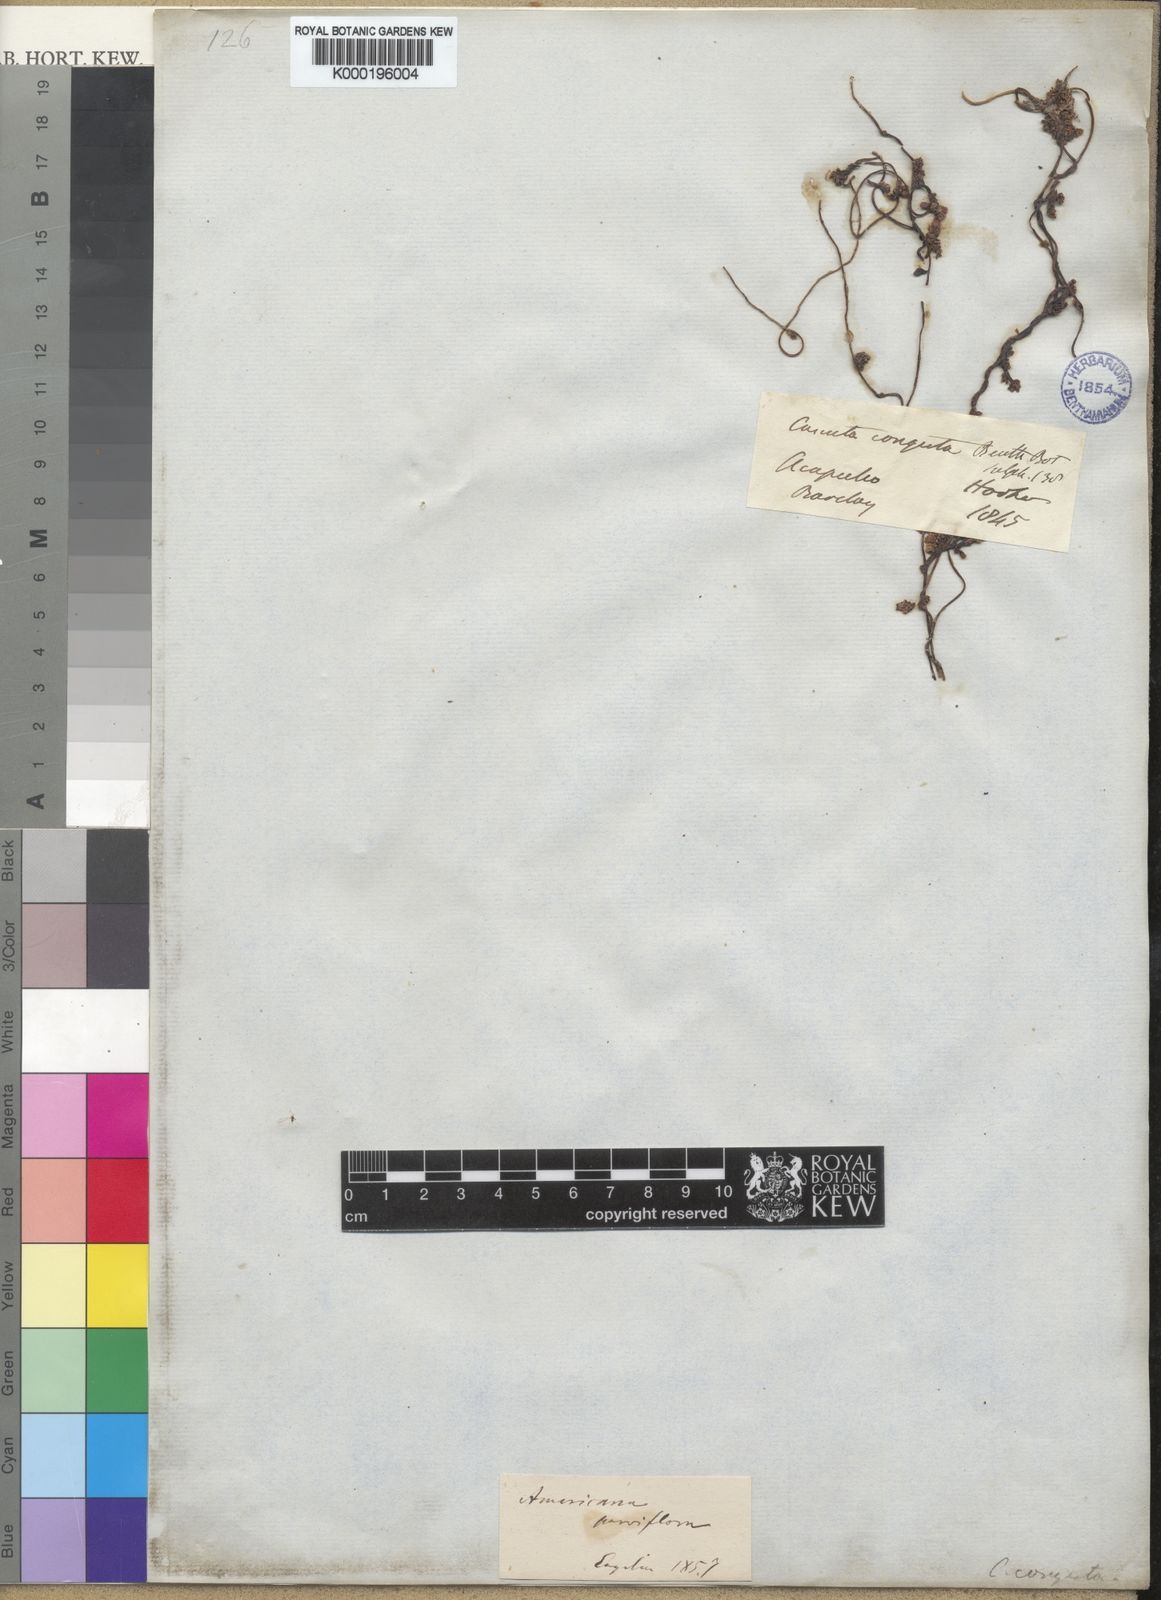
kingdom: Plantae
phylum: Tracheophyta
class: Magnoliopsida
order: Solanales
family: Convolvulaceae
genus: Cuscuta
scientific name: Cuscuta americana
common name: American dodder
